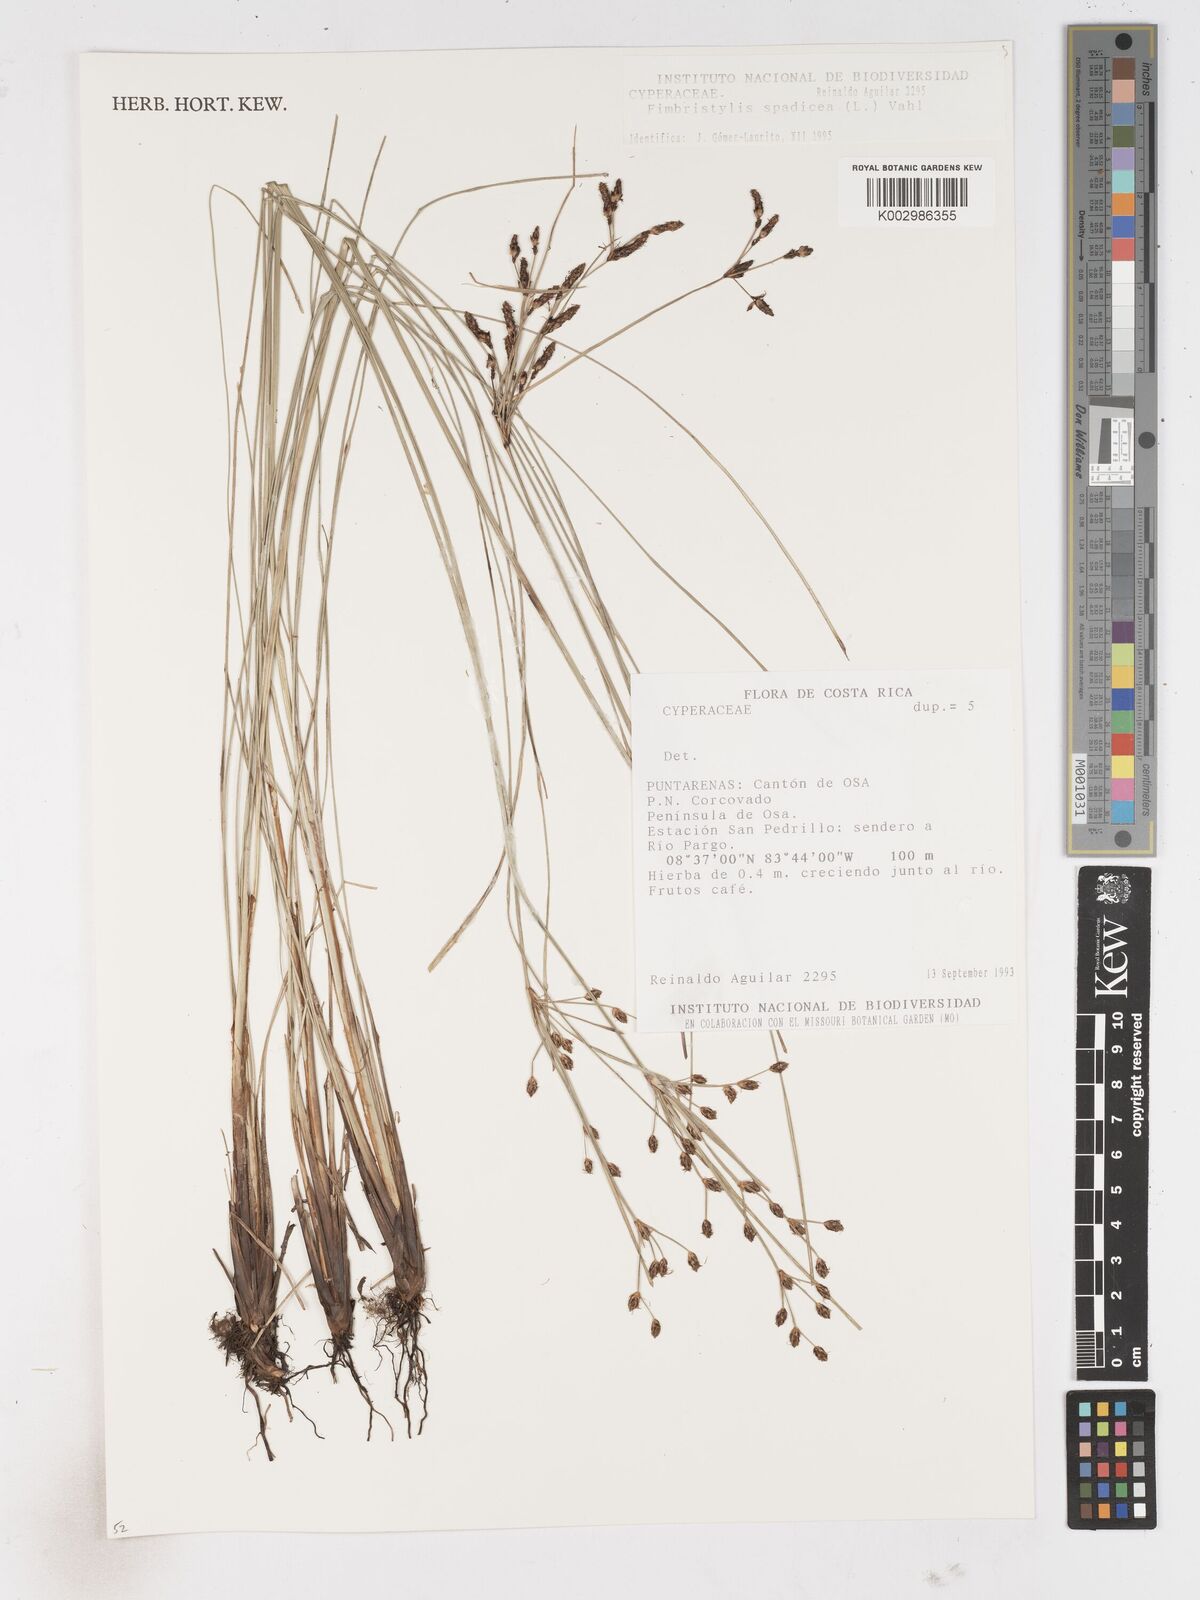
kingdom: Plantae
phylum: Tracheophyta
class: Liliopsida
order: Poales
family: Cyperaceae
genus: Fimbristylis
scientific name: Fimbristylis
